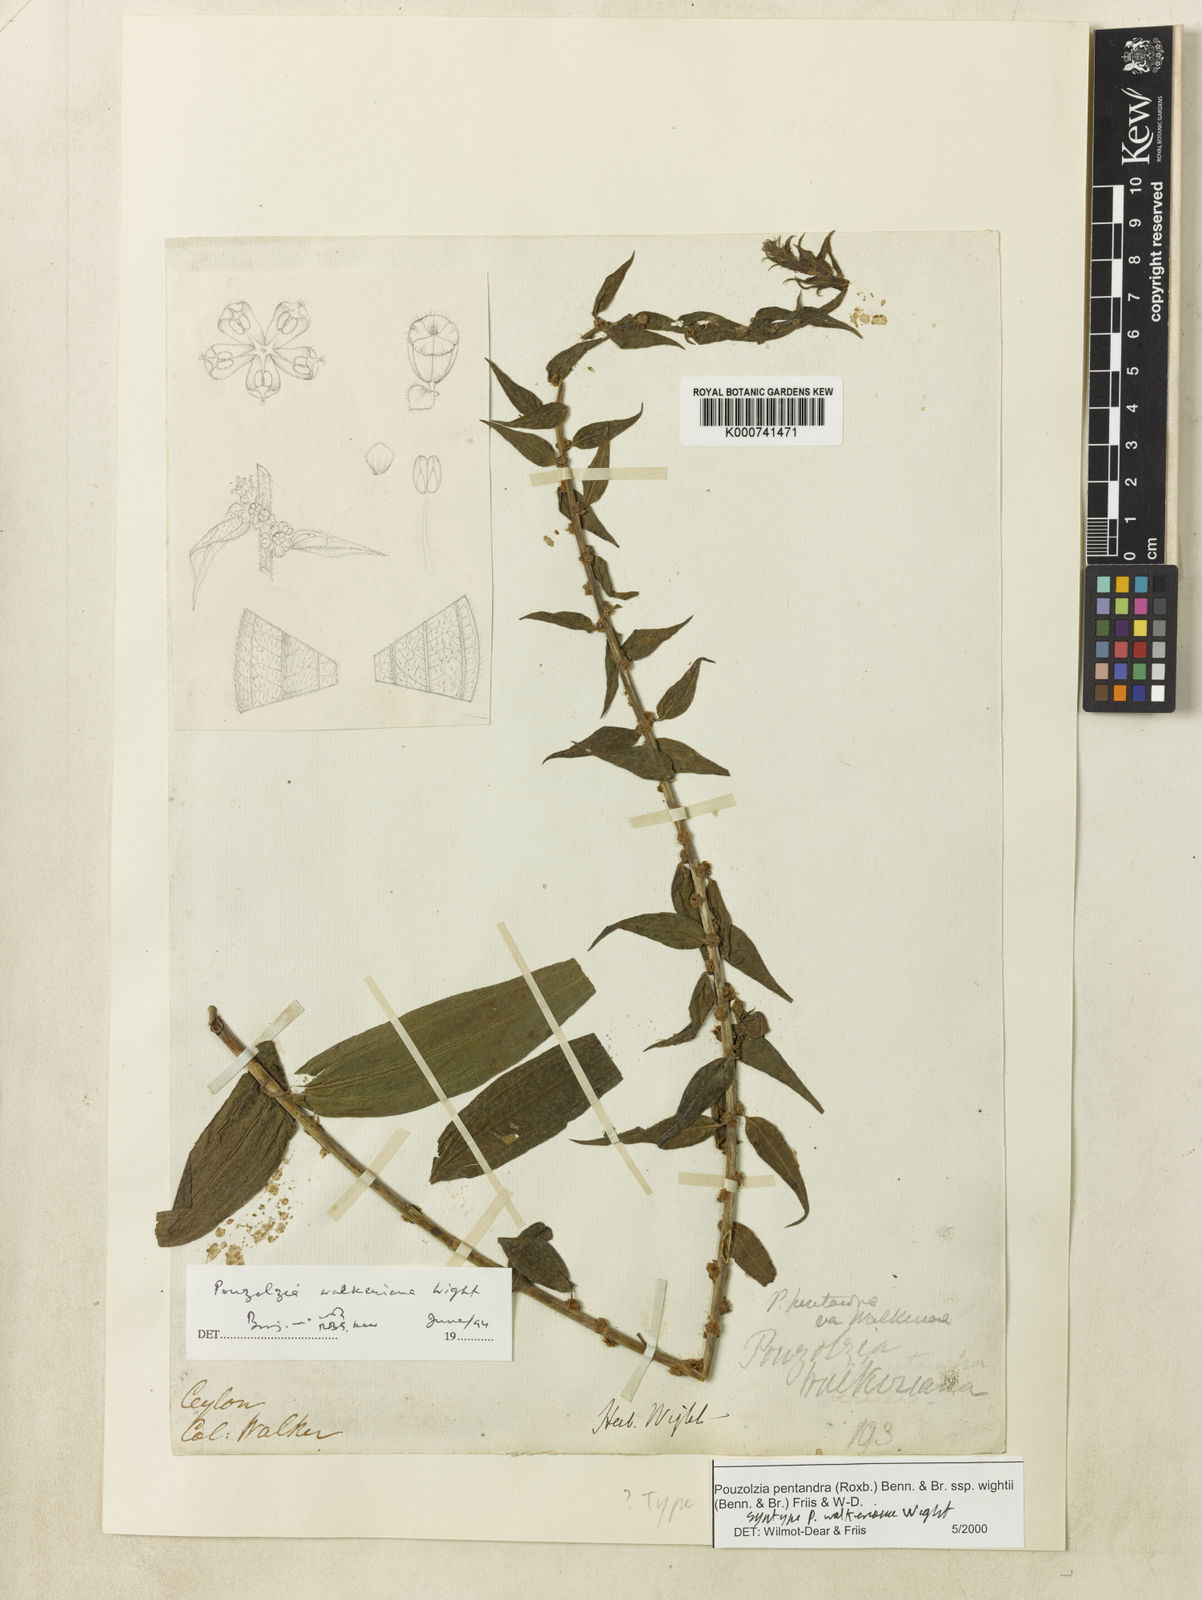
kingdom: Plantae
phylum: Tracheophyta
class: Magnoliopsida
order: Rosales
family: Urticaceae
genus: Gonostegia
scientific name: Gonostegia pentandra
